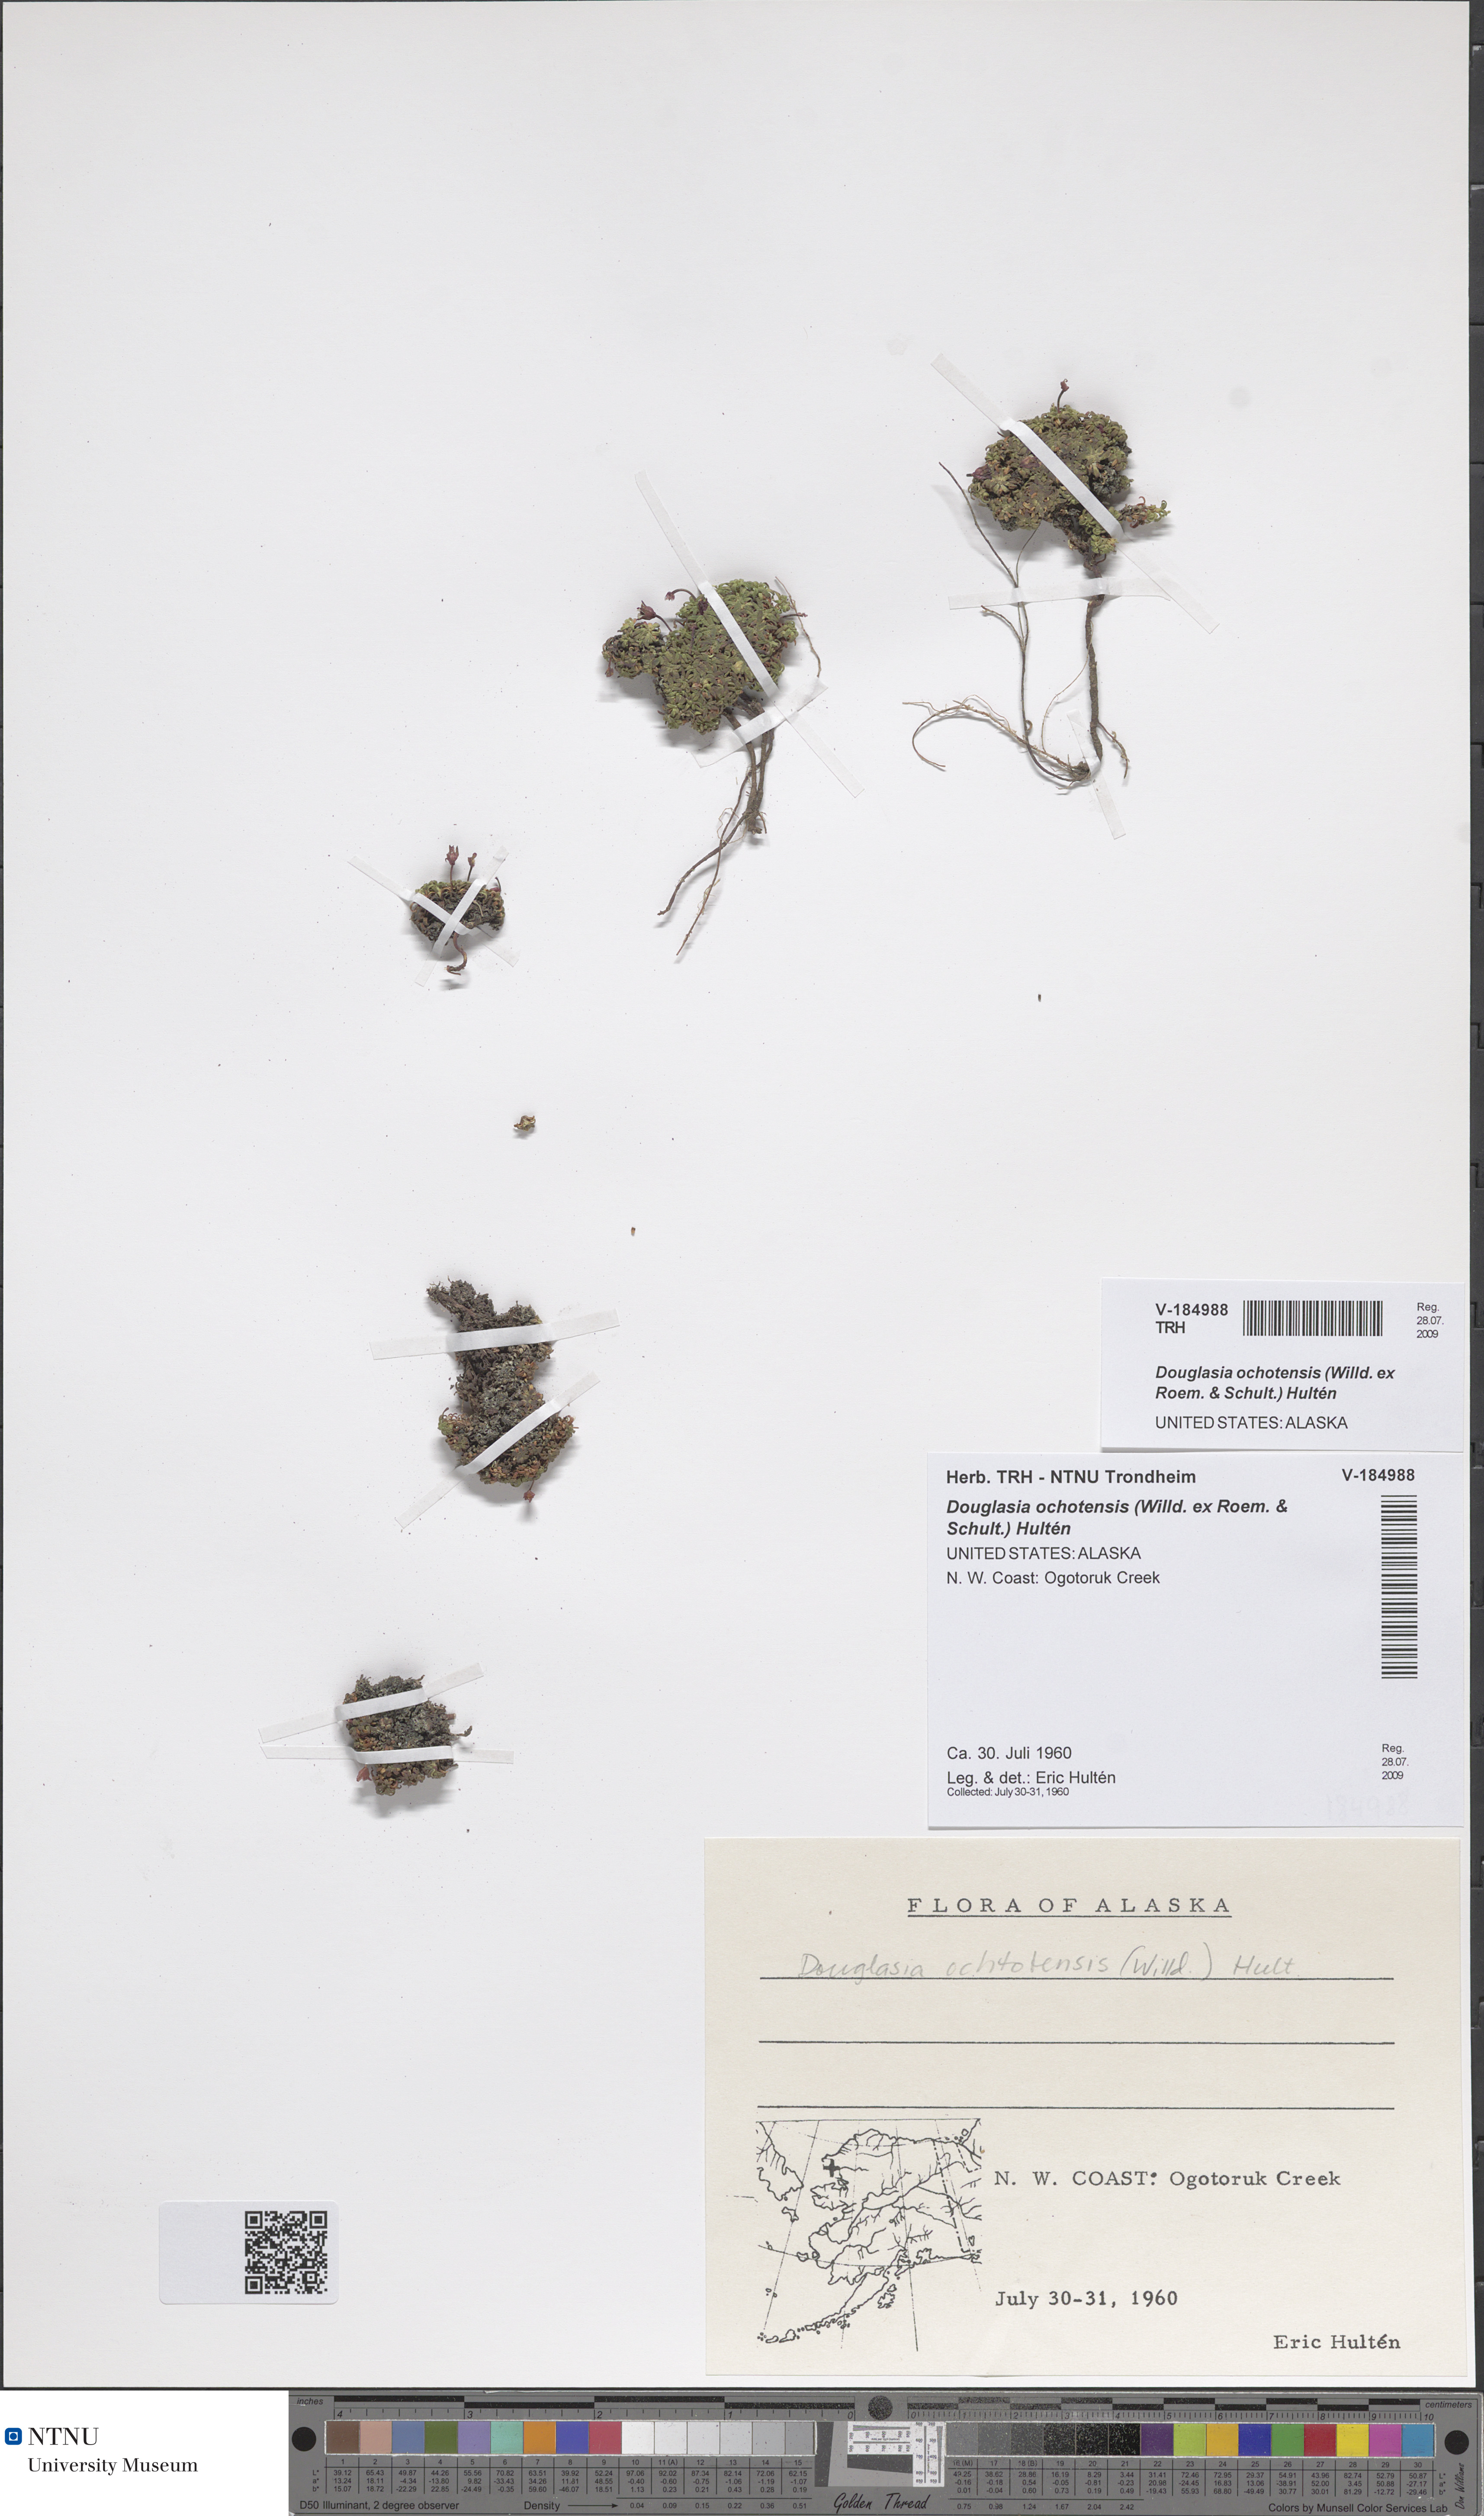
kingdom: Plantae
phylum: Tracheophyta
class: Magnoliopsida
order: Ericales
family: Primulaceae
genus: Androsace
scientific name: Androsace ochotensis
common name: Alaska dwarf-primrose
